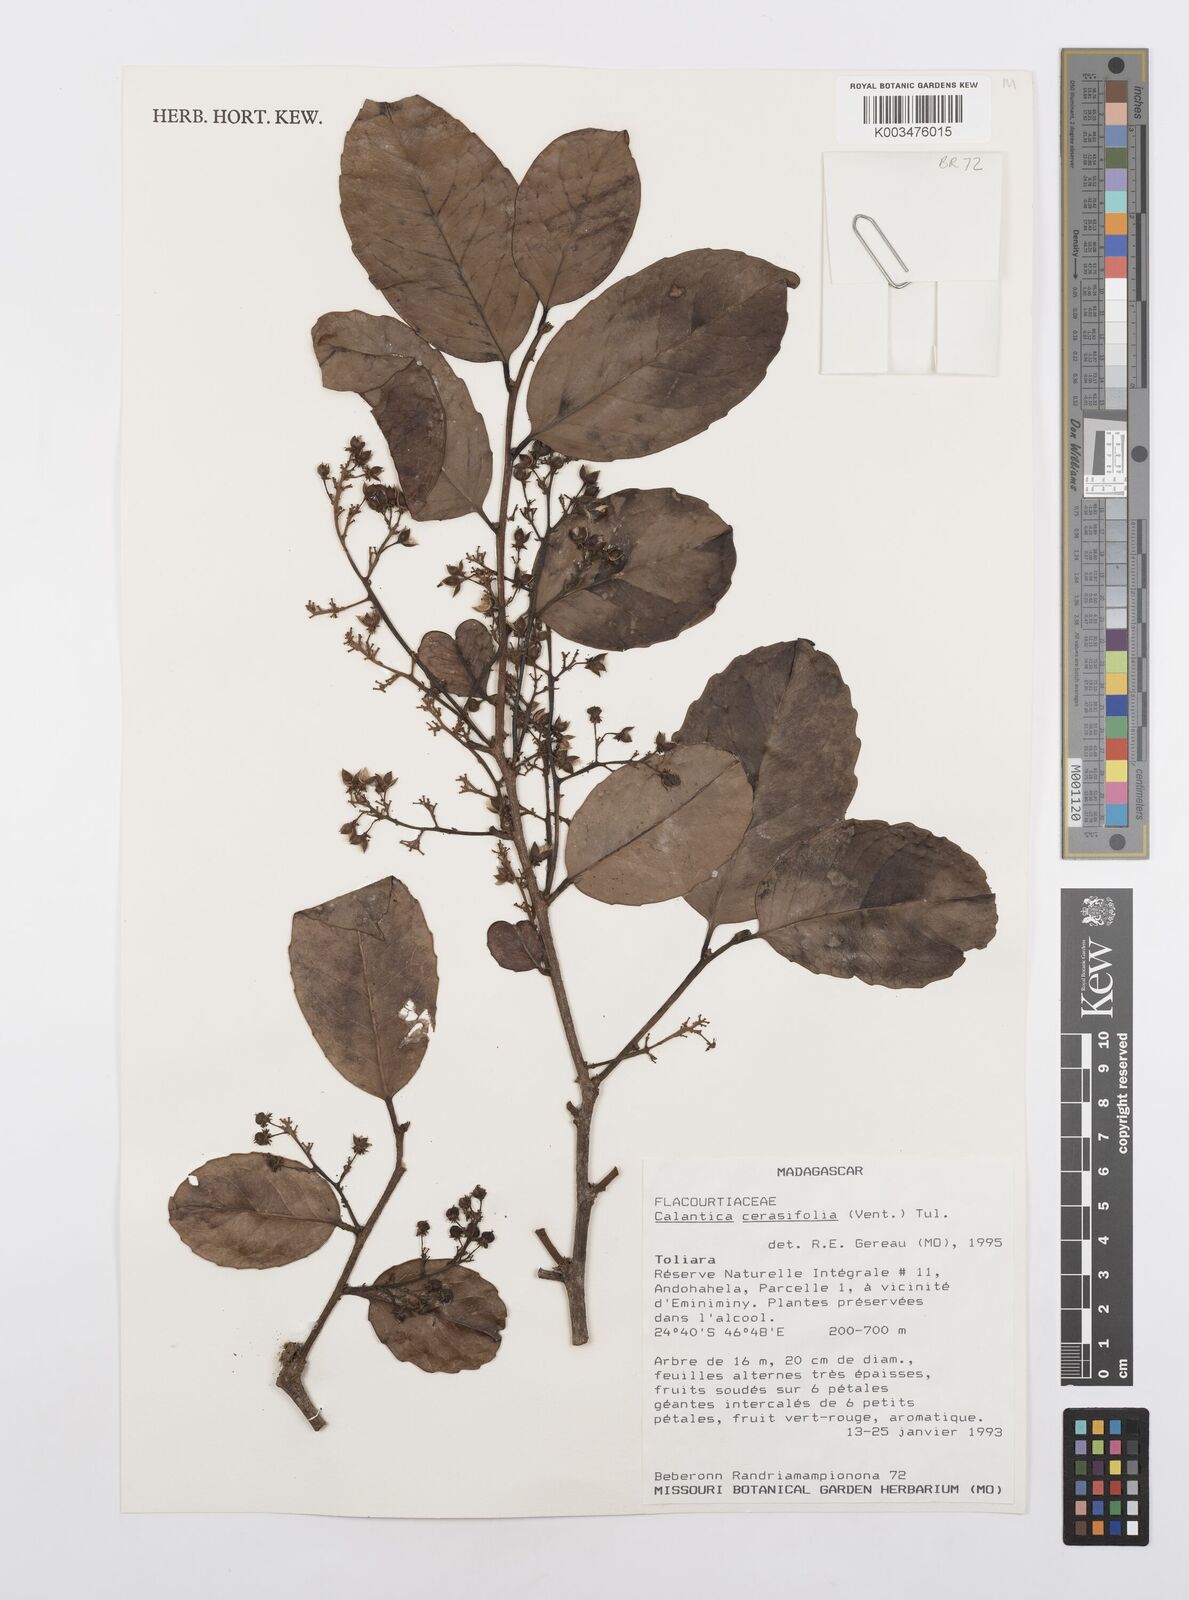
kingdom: Plantae
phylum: Tracheophyta
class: Magnoliopsida
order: Malpighiales
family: Salicaceae
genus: Calantica
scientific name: Calantica cerasifolia
